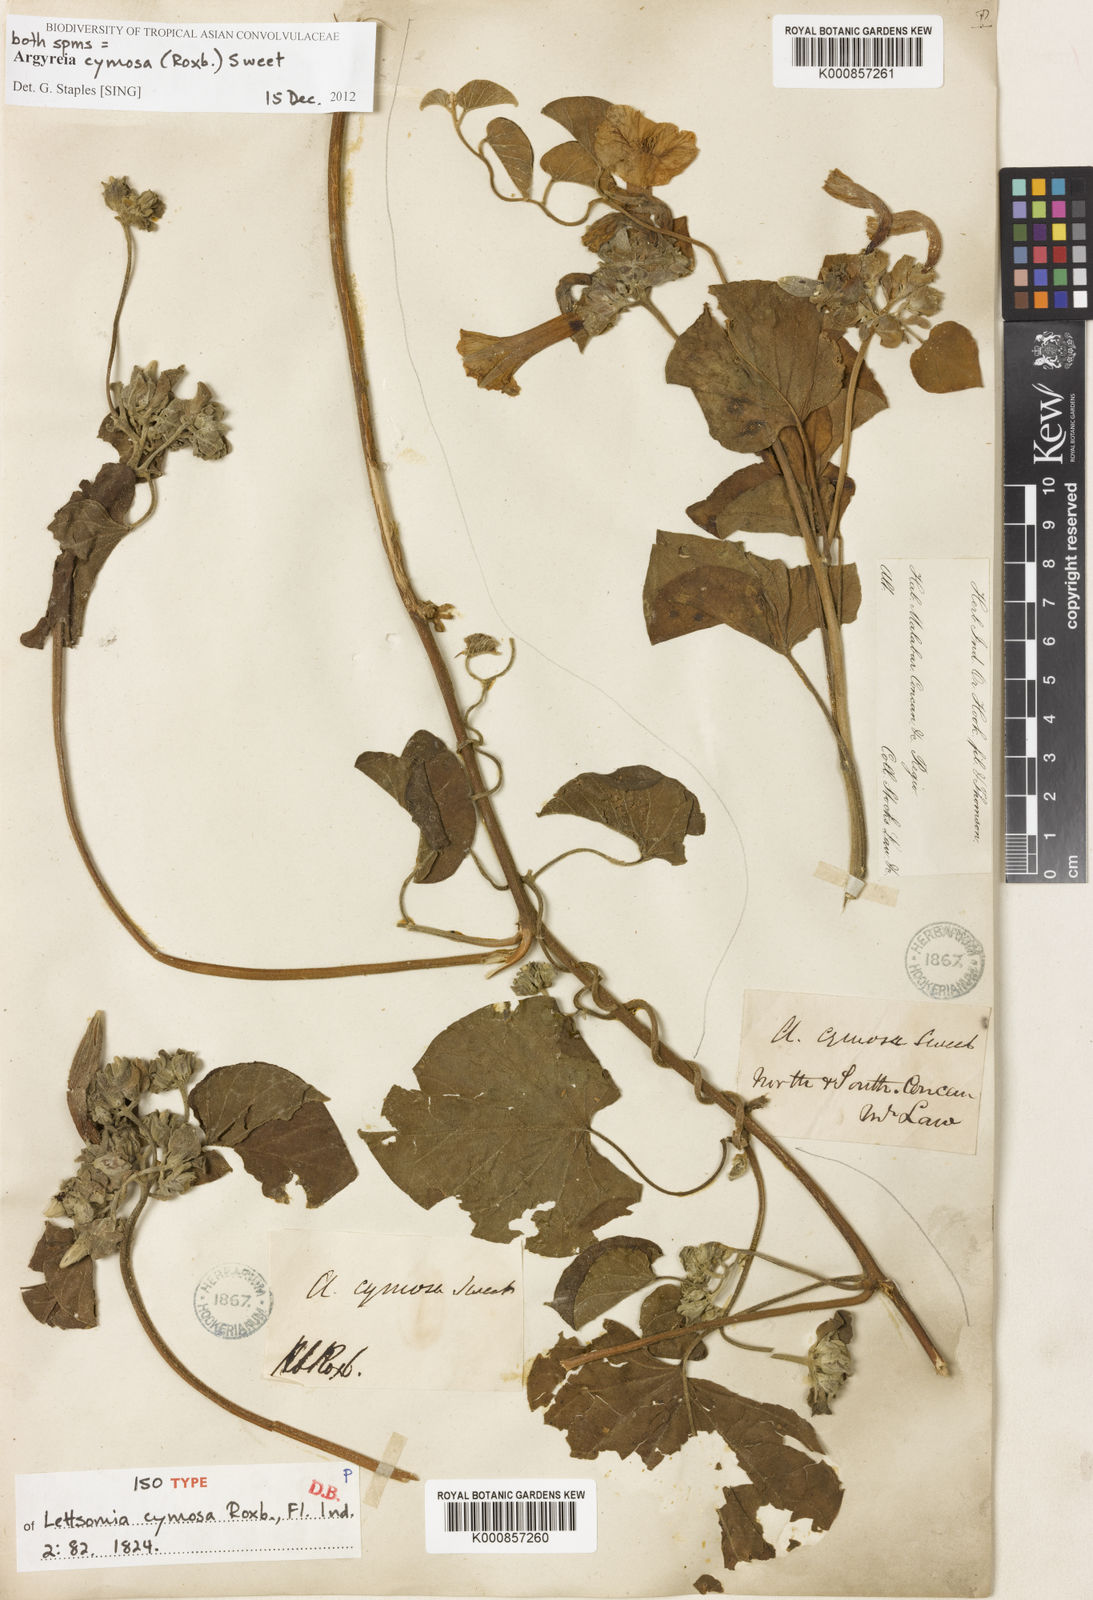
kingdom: Plantae
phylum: Tracheophyta
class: Magnoliopsida
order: Solanales
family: Convolvulaceae
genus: Argyreia
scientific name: Argyreia cymosa
